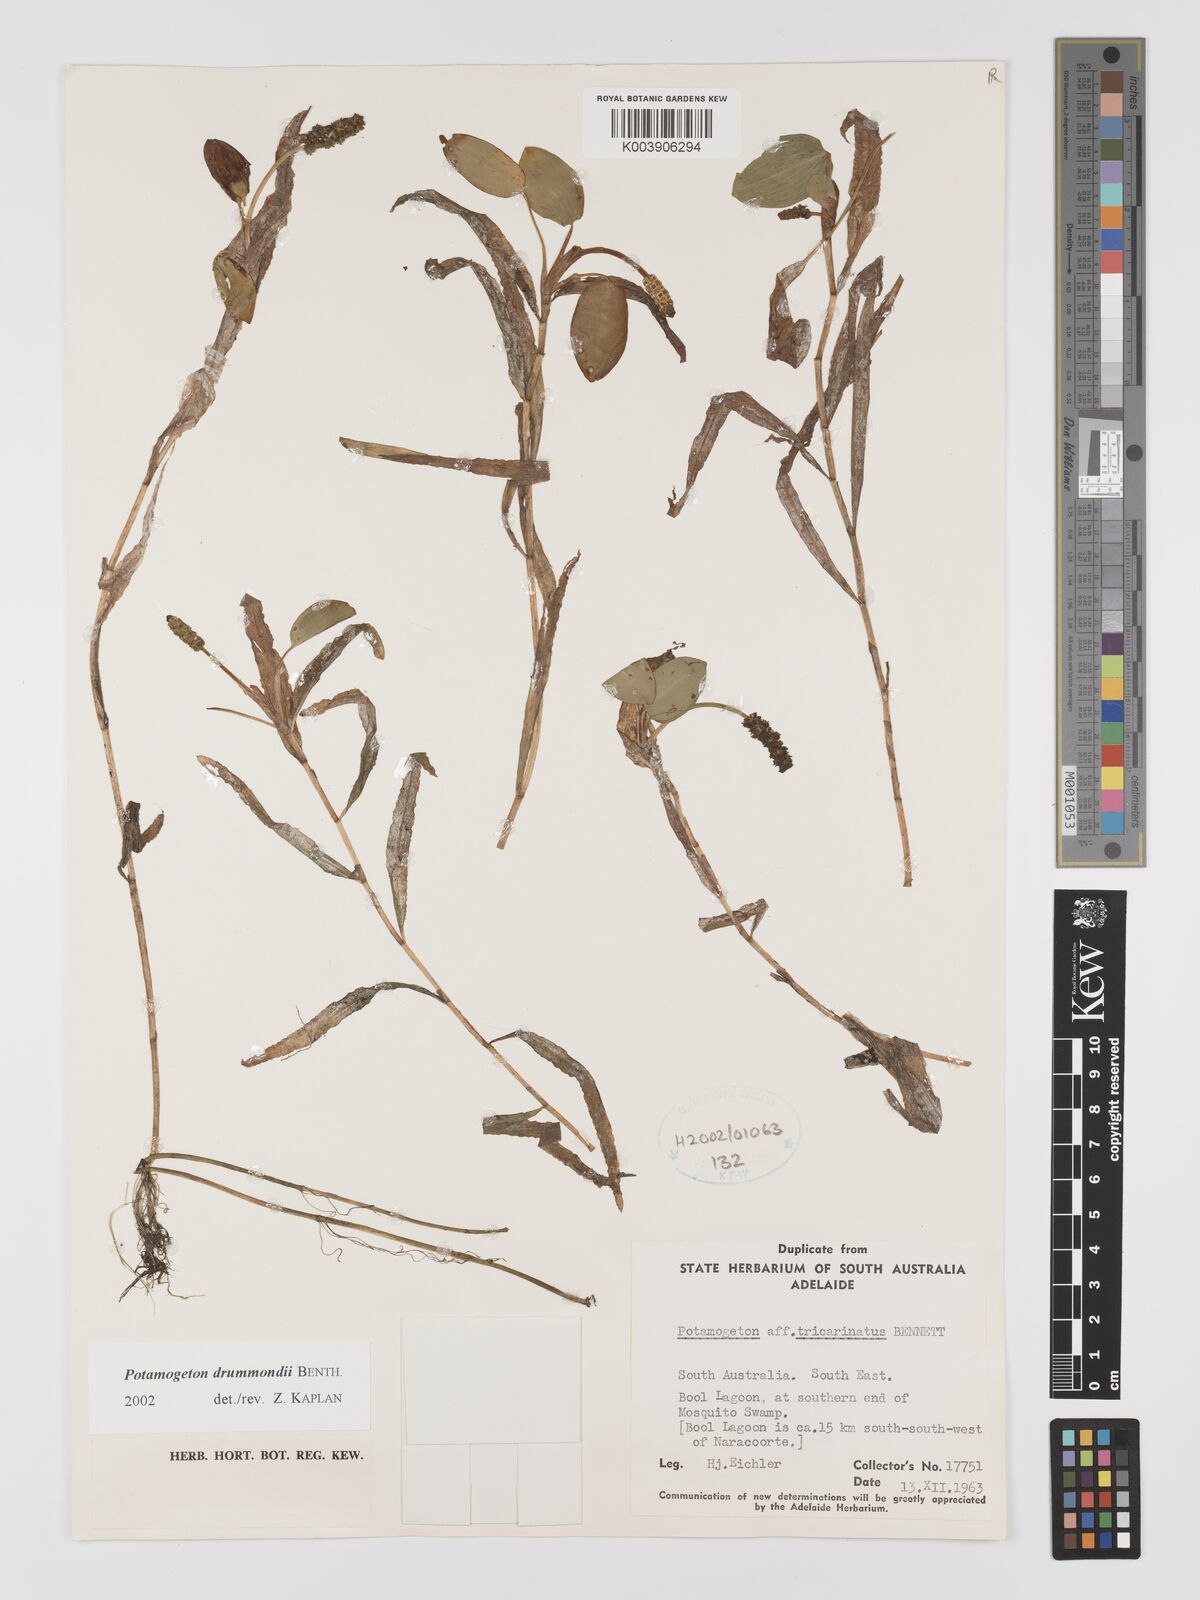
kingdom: Plantae
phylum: Tracheophyta
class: Liliopsida
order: Alismatales
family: Potamogetonaceae
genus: Potamogeton
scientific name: Potamogeton drummondii
